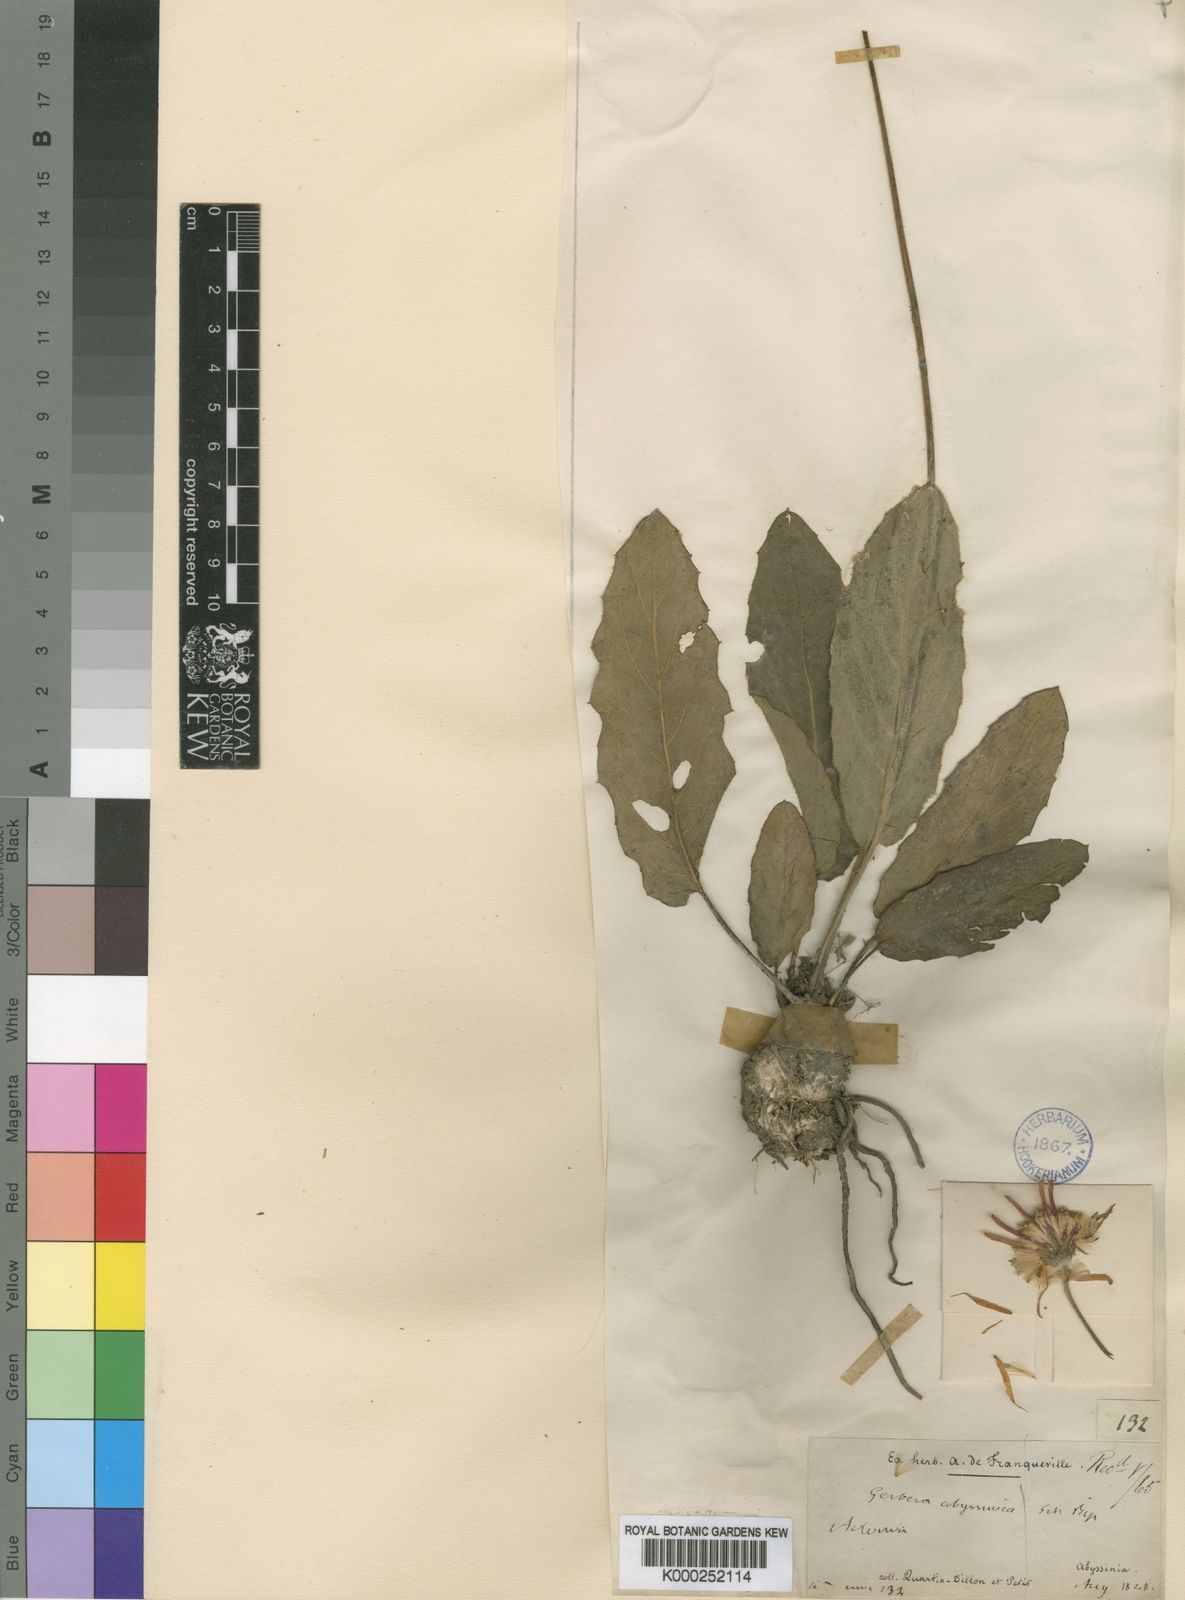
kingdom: Plantae
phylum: Tracheophyta
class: Magnoliopsida
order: Asterales
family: Asteraceae
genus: Gerbera
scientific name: Gerbera viridifolia
